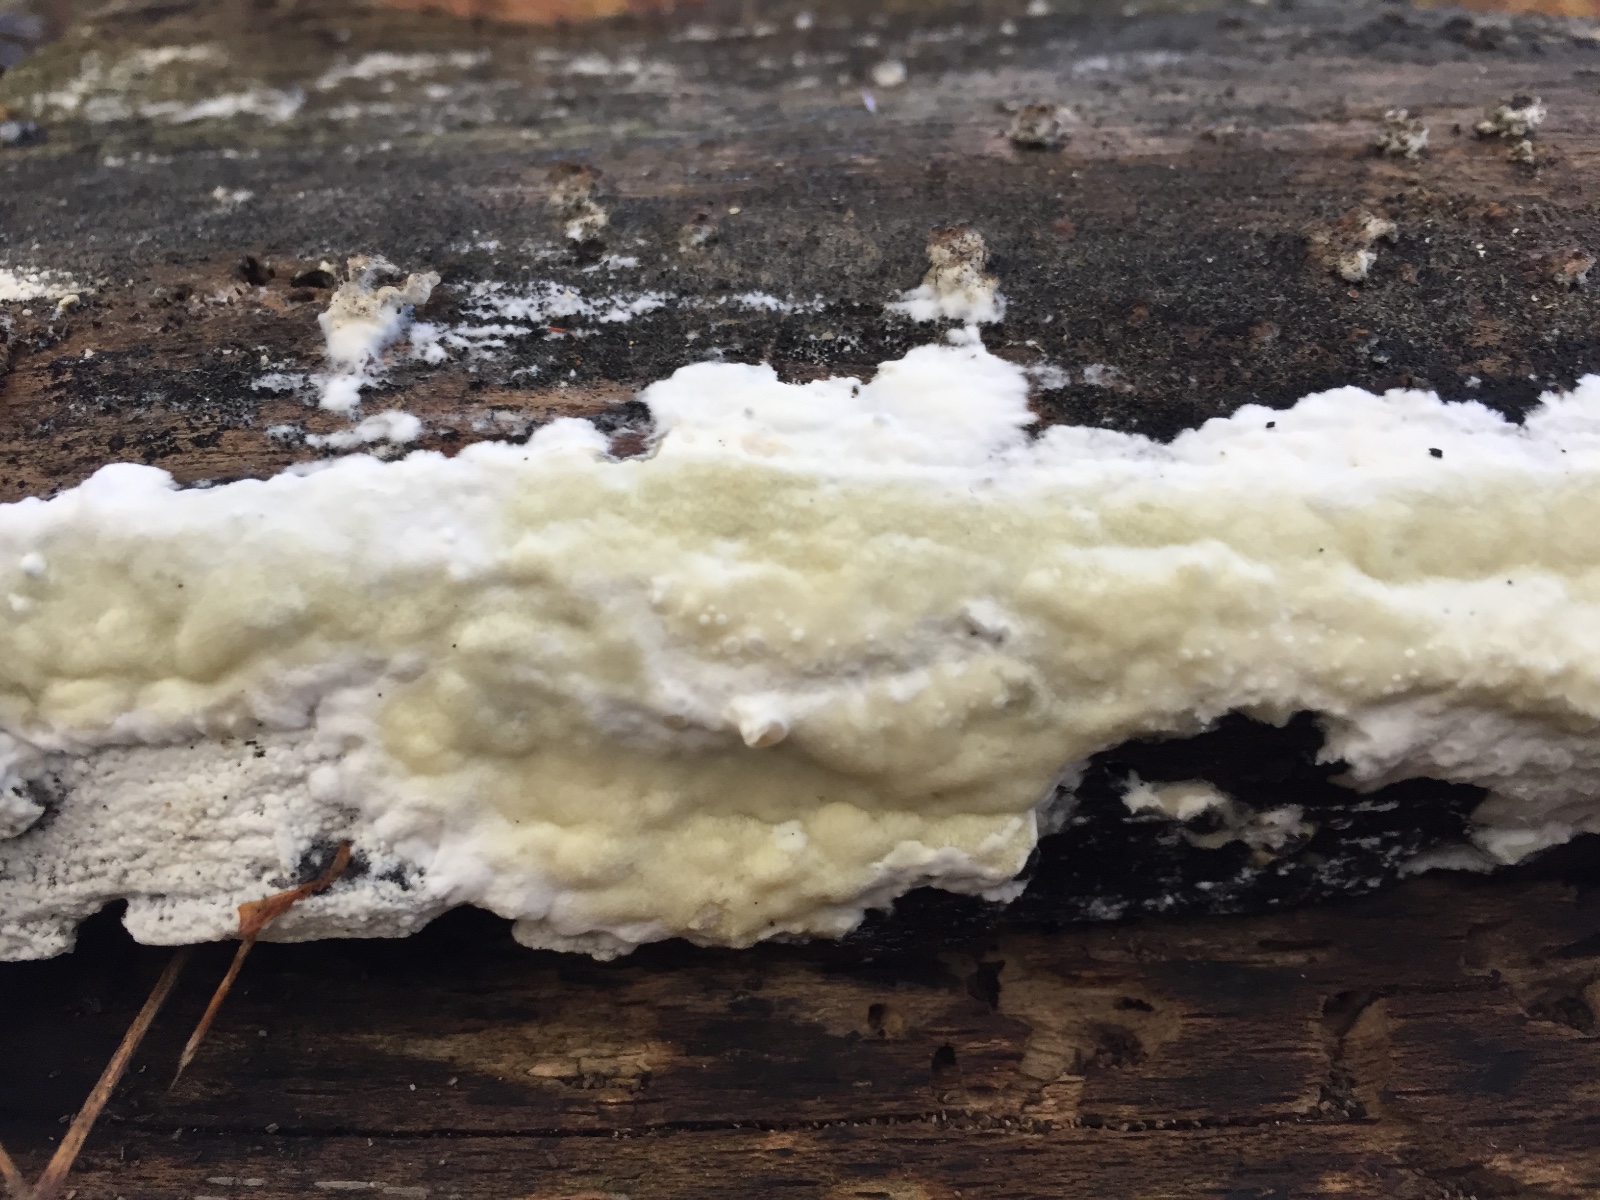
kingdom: Fungi
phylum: Basidiomycota
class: Agaricomycetes
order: Polyporales
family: Irpicaceae
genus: Gloeoporus
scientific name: Gloeoporus pannocinctus
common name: grøngul foldporesvamp
